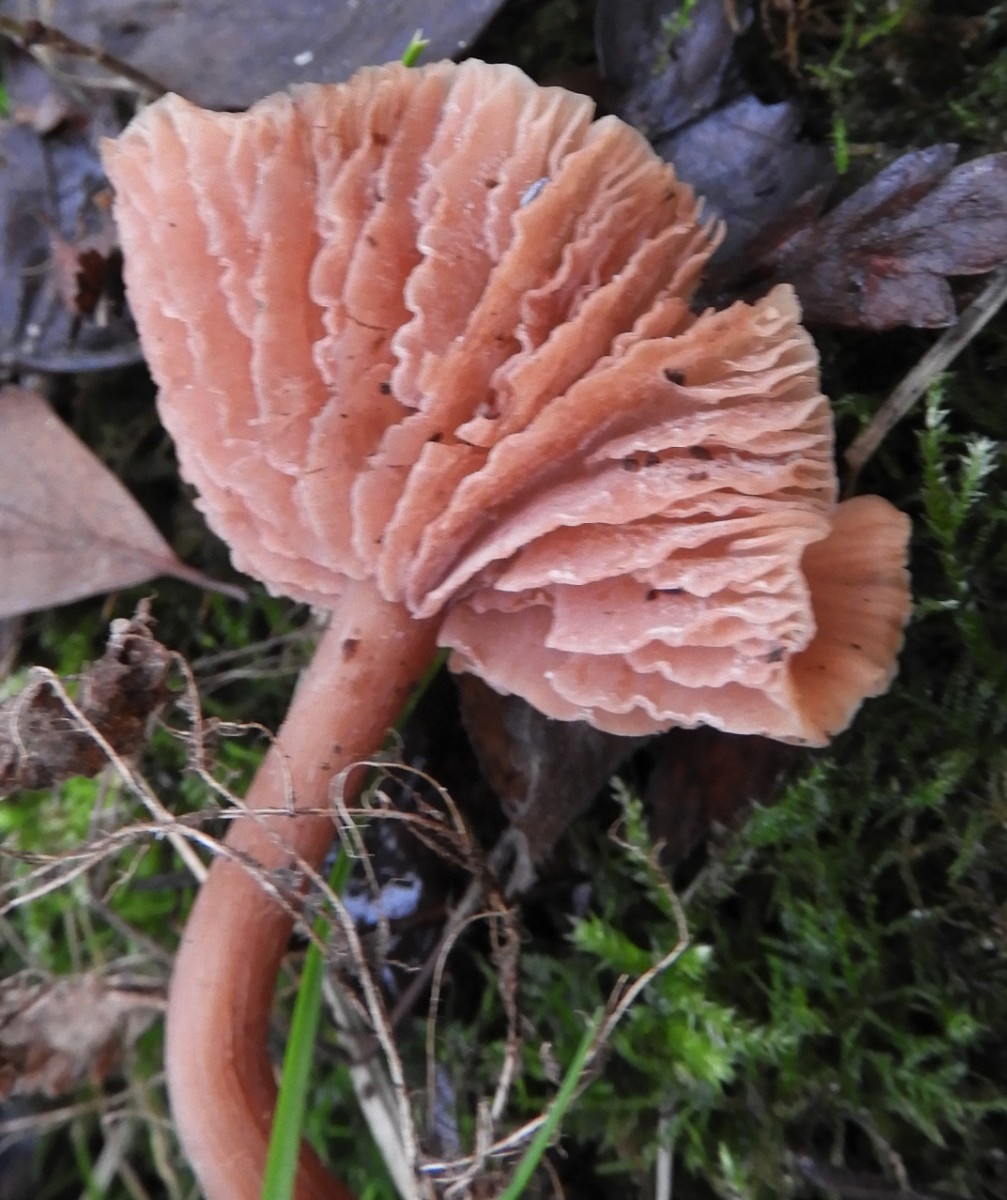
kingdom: Fungi
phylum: Basidiomycota
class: Agaricomycetes
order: Agaricales
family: Hydnangiaceae
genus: Laccaria
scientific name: Laccaria laccata
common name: rød ametysthat
